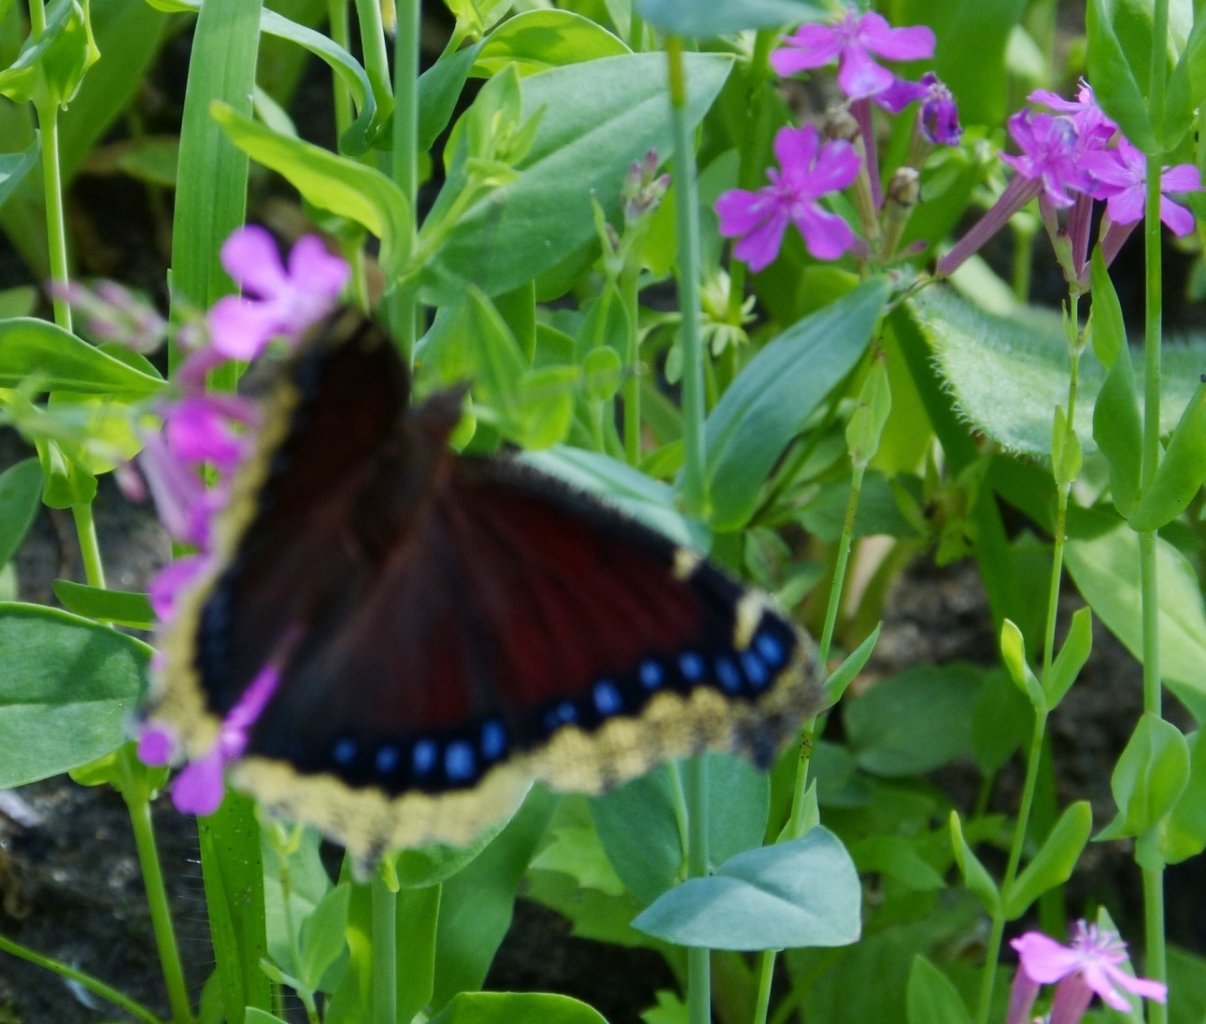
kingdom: Animalia
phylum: Arthropoda
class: Insecta
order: Lepidoptera
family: Nymphalidae
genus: Nymphalis
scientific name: Nymphalis antiopa
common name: Mourning Cloak
